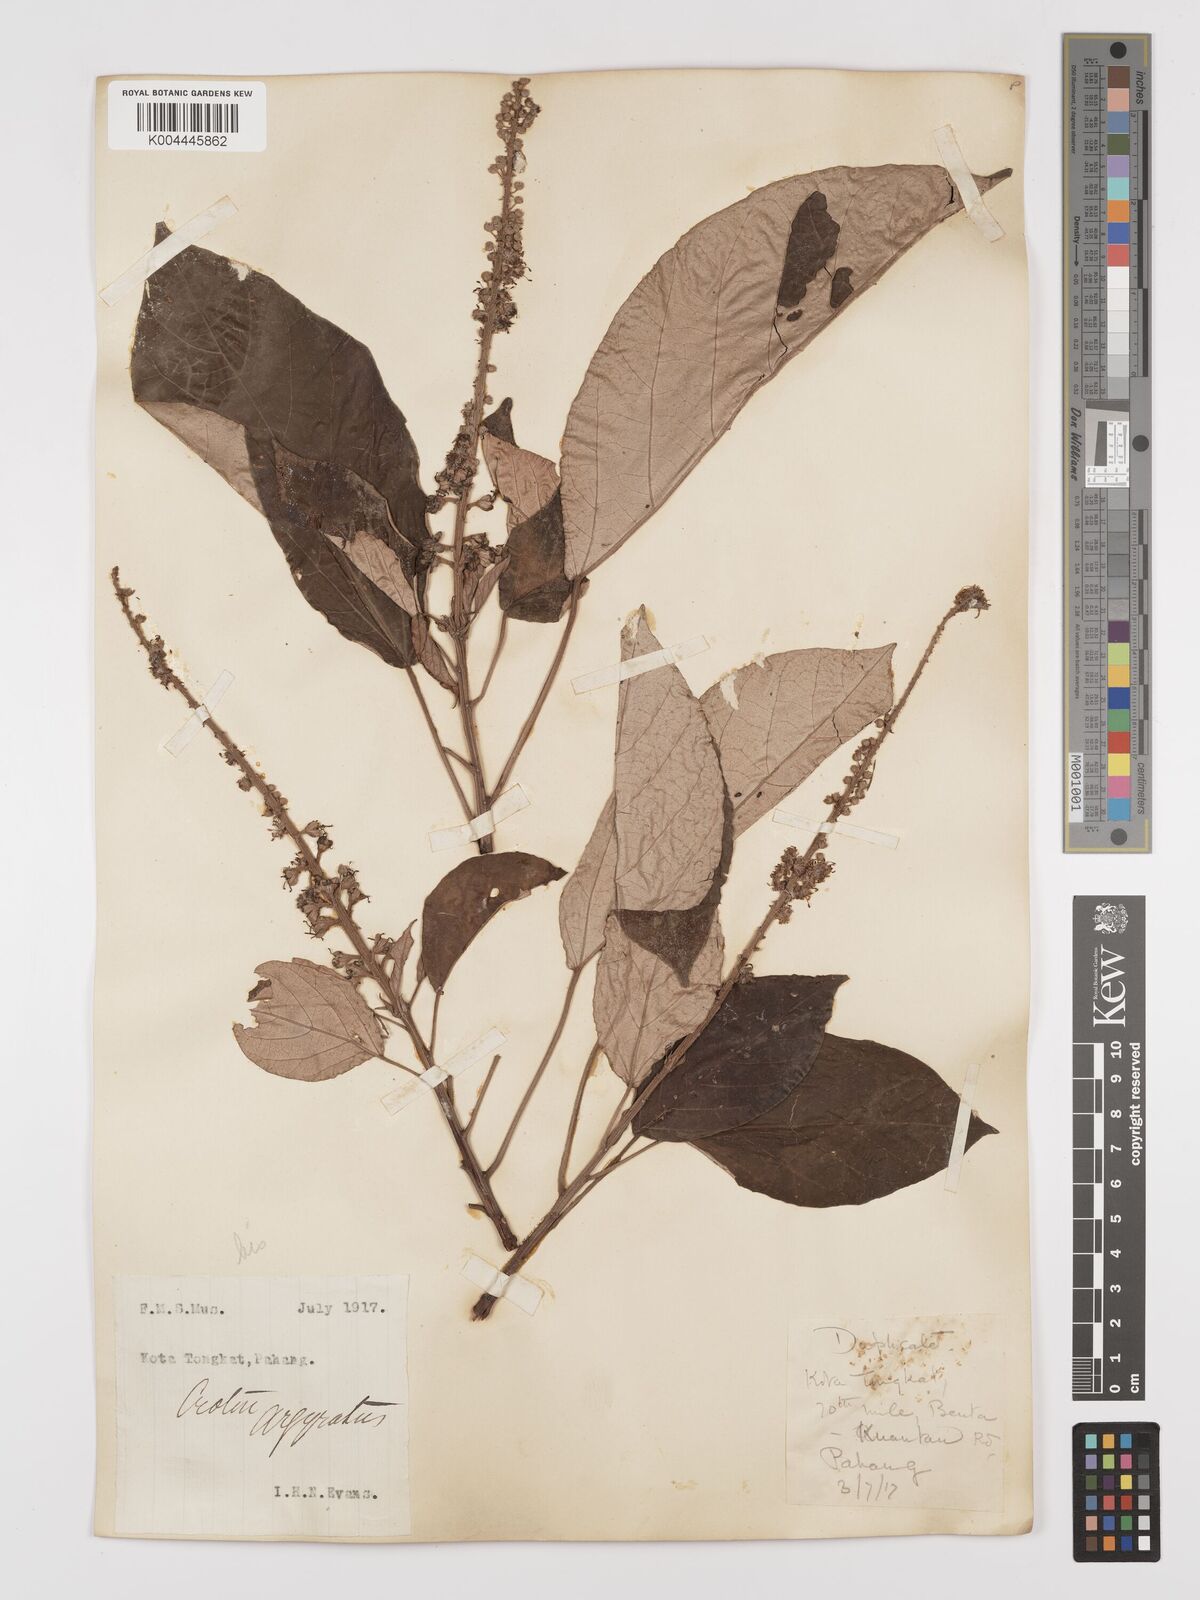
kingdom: Plantae
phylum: Tracheophyta
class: Magnoliopsida
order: Malpighiales
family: Euphorbiaceae
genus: Croton
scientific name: Croton argyratus
